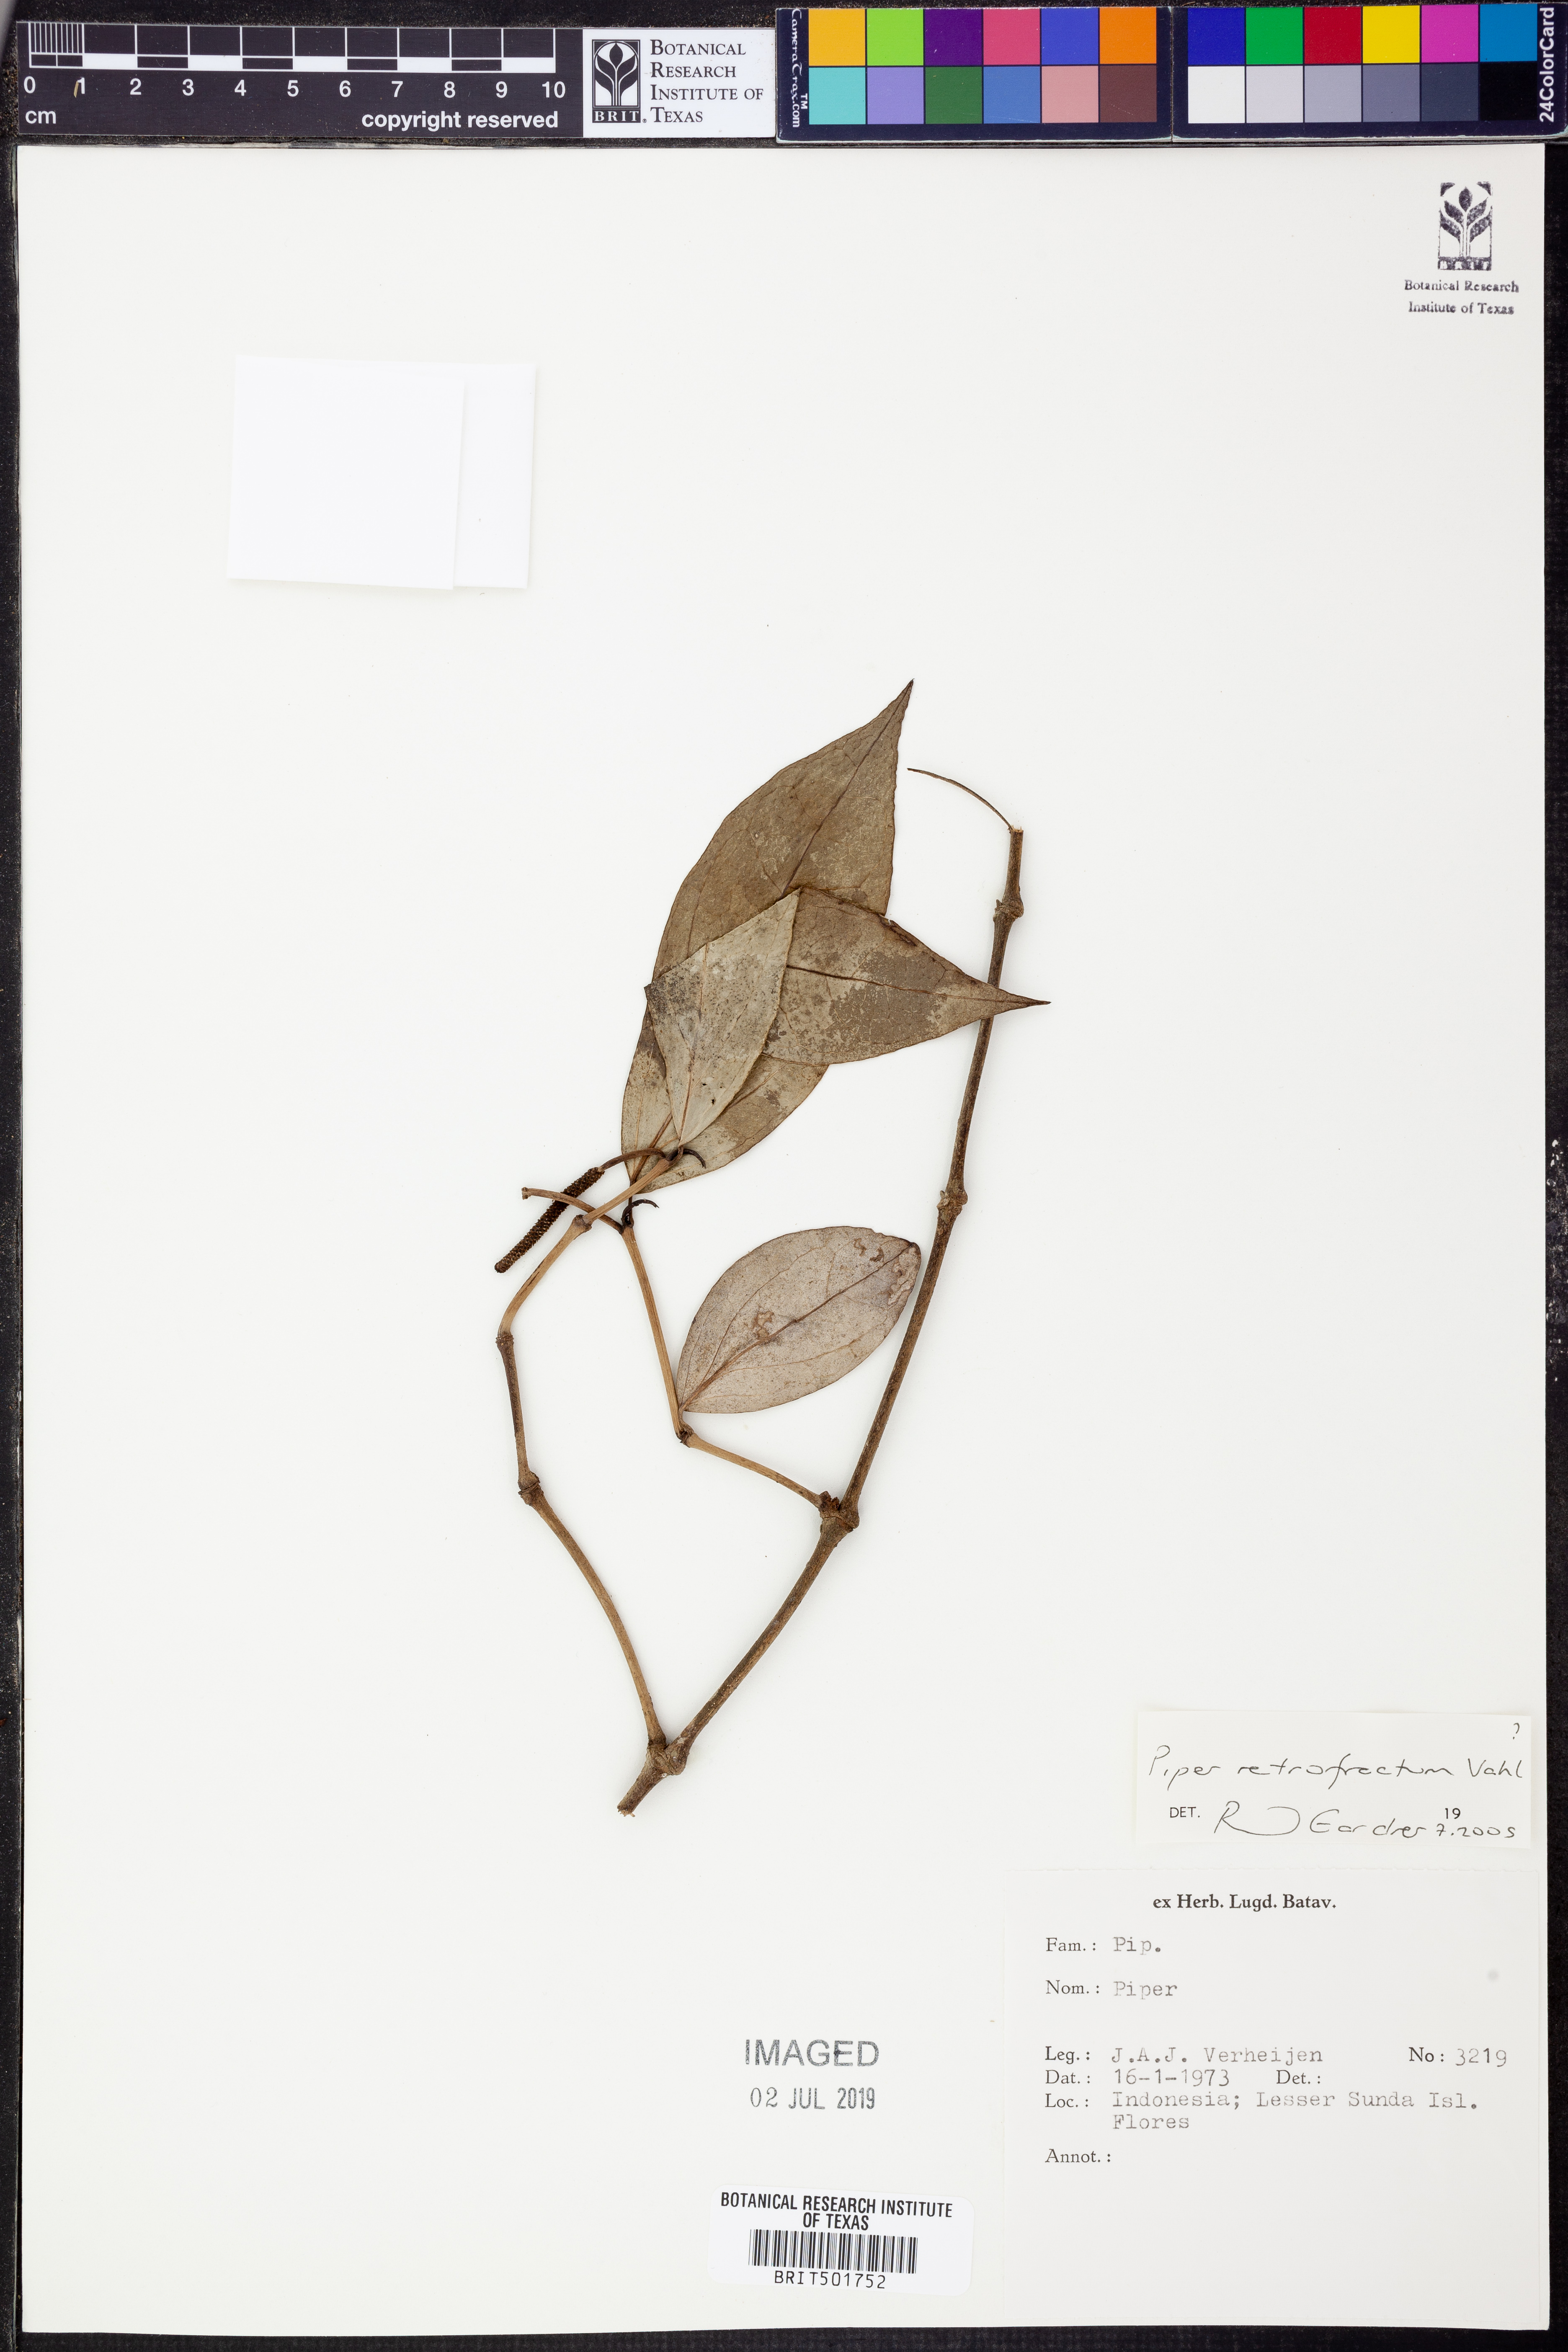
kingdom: Plantae
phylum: Tracheophyta
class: Magnoliopsida
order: Piperales
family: Piperaceae
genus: Piper
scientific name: Piper retrofractum
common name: Javanese long pepper
